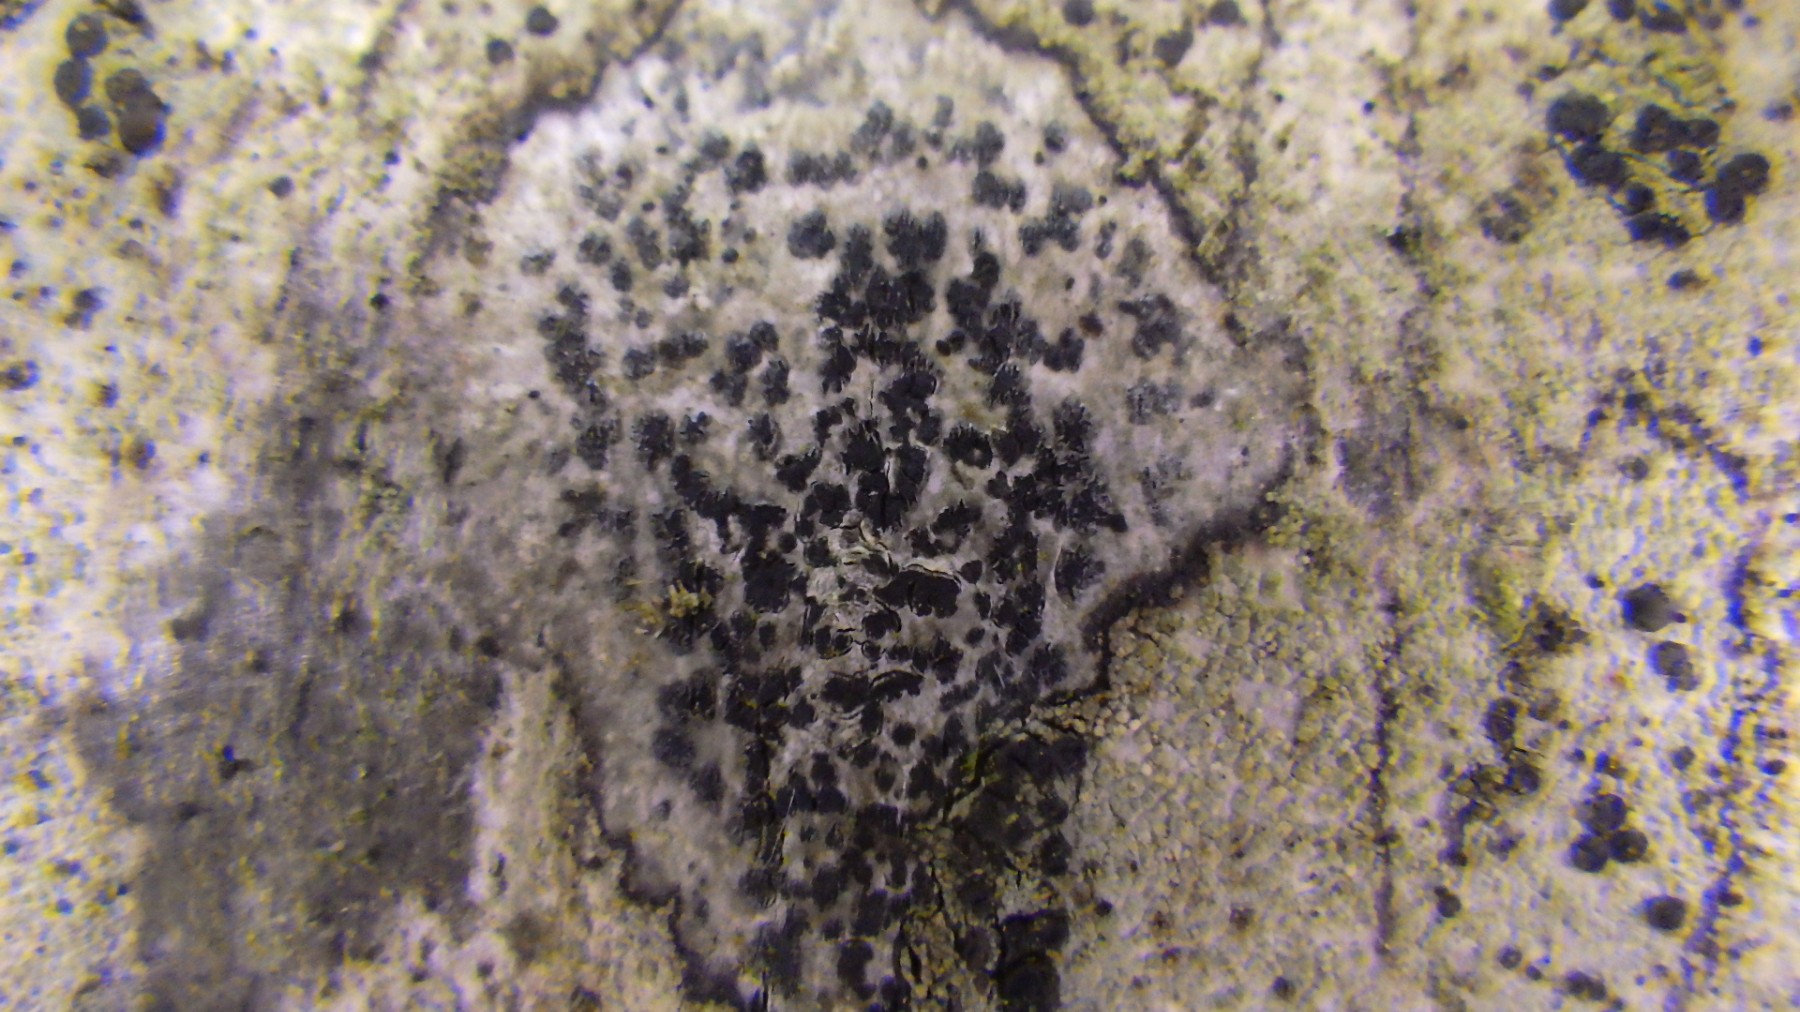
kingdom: Fungi
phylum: Ascomycota
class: Arthoniomycetes
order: Arthoniales
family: Arthoniaceae
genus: Arthonia
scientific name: Arthonia radiata
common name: stjerne-pletlav
